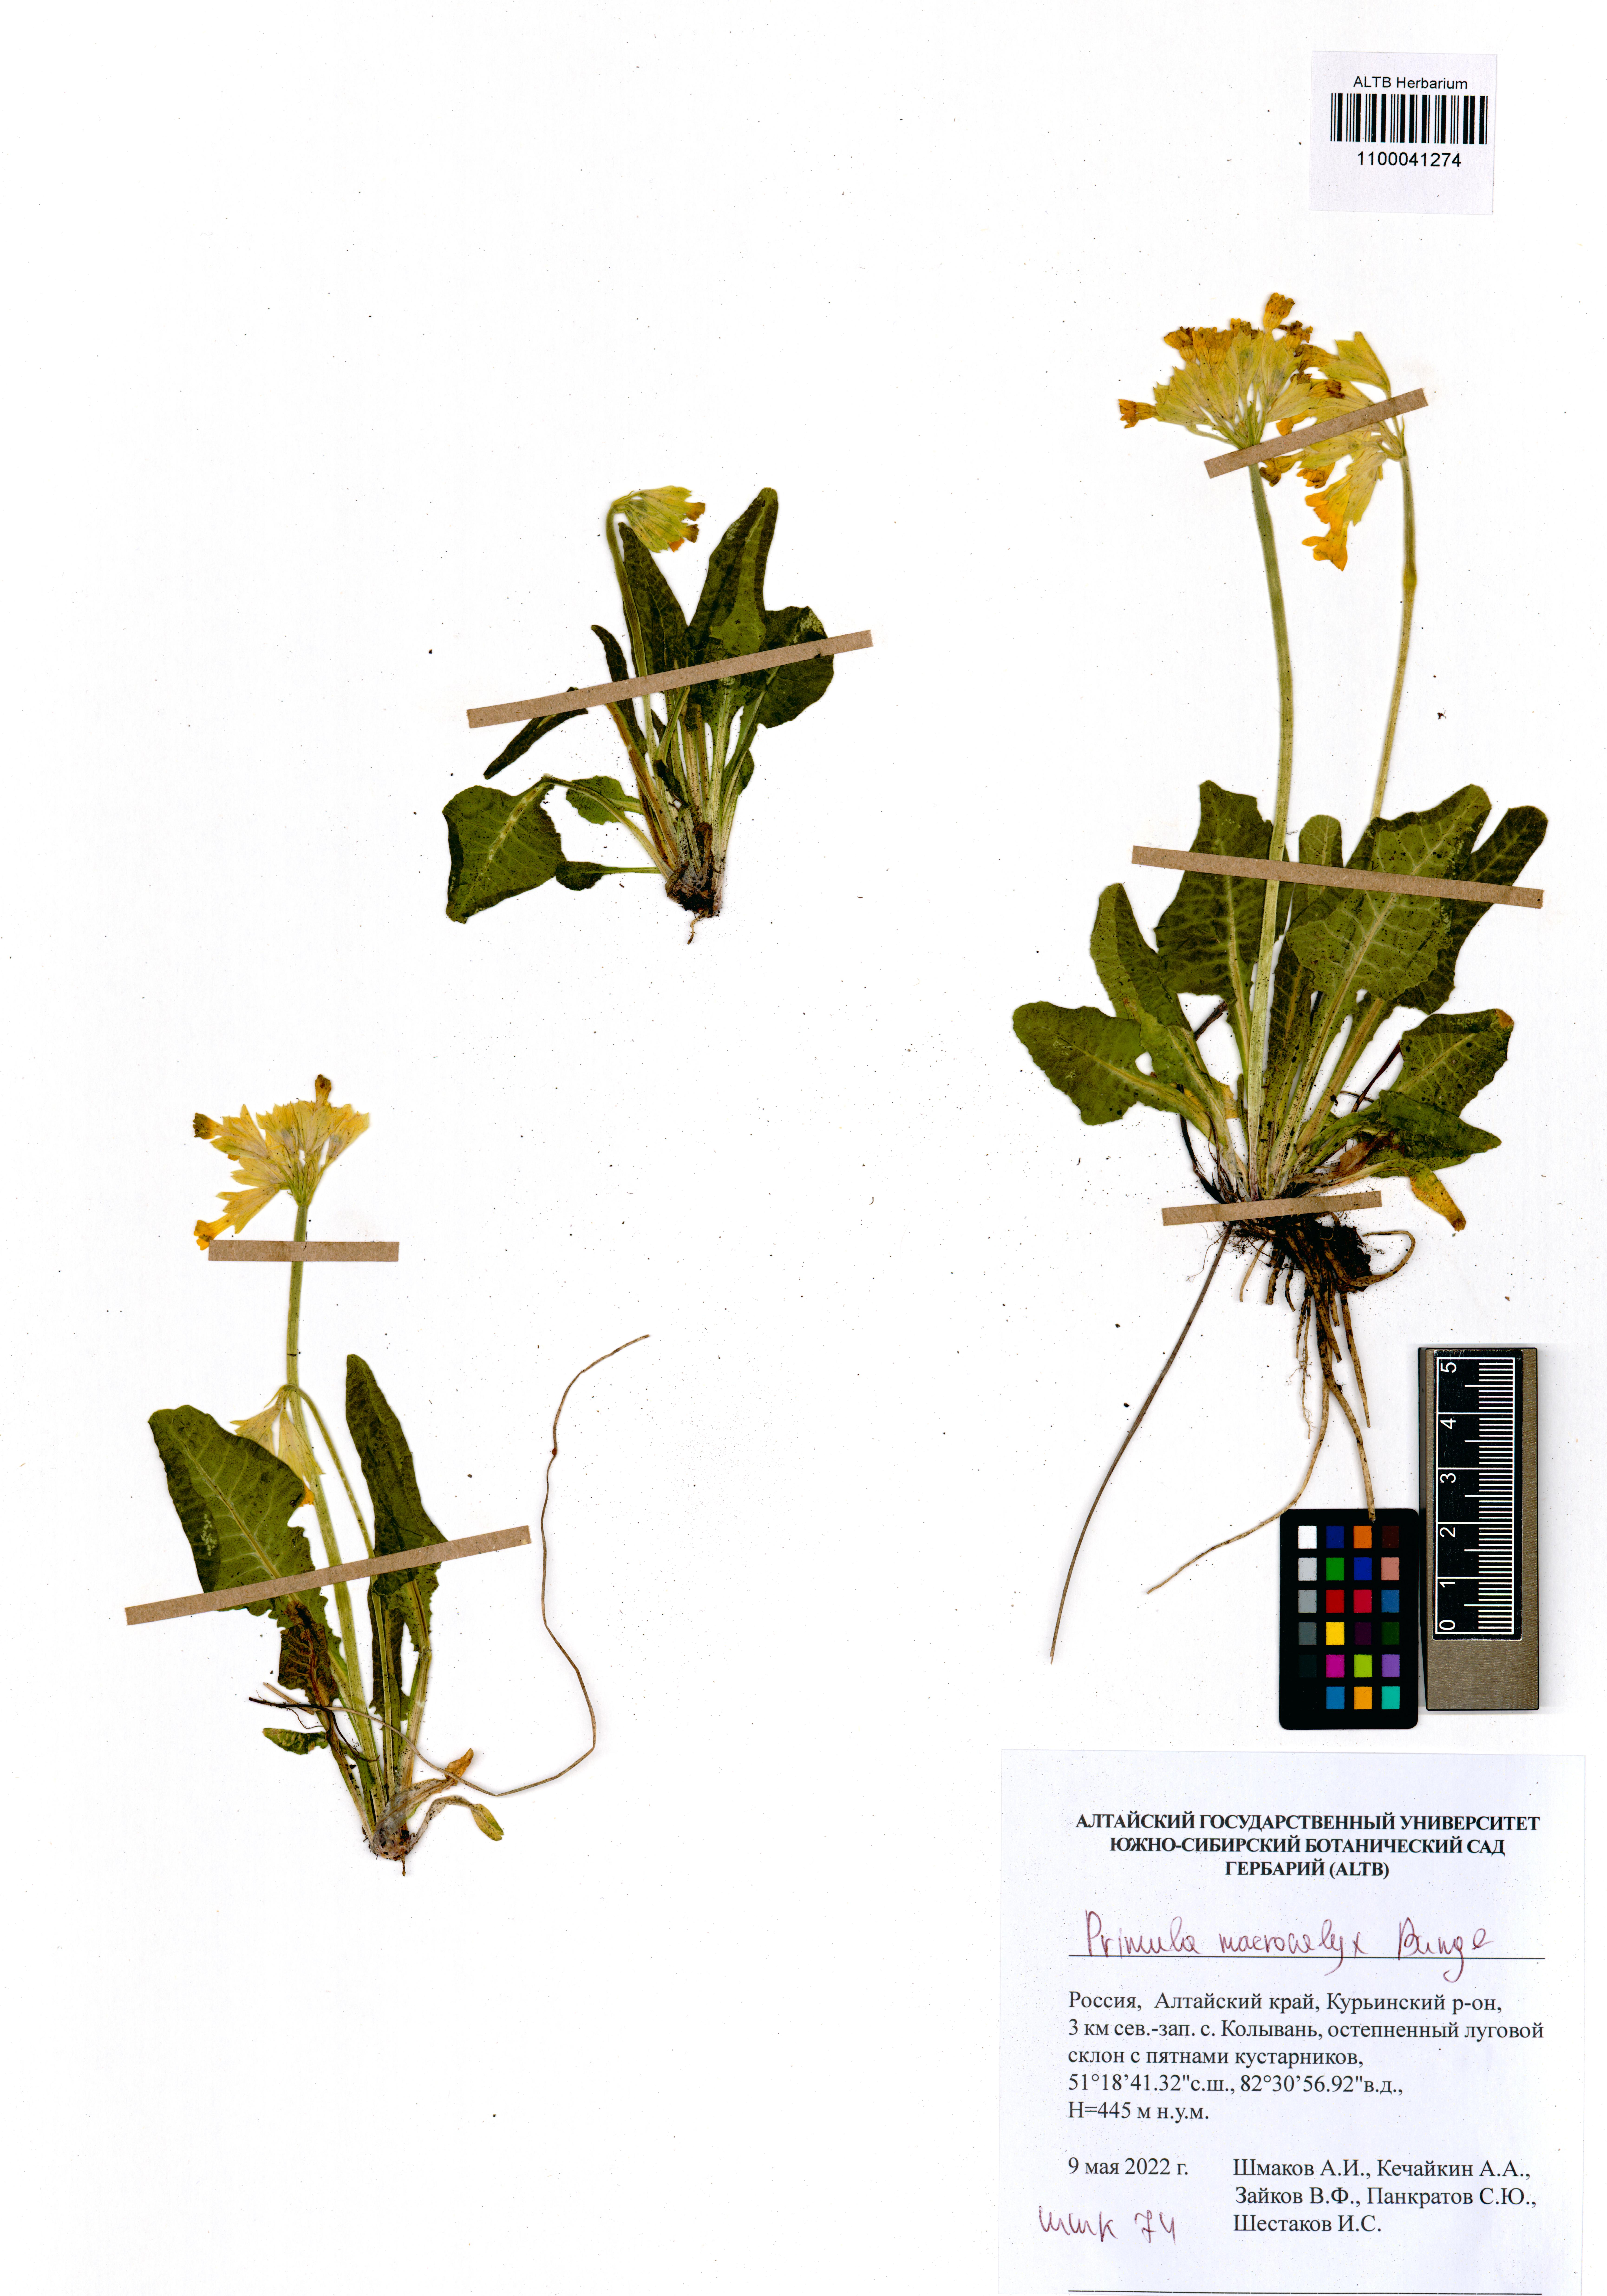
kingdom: Plantae
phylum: Tracheophyta
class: Magnoliopsida
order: Ericales
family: Primulaceae
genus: Primula
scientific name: Primula veris
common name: Cowslip
